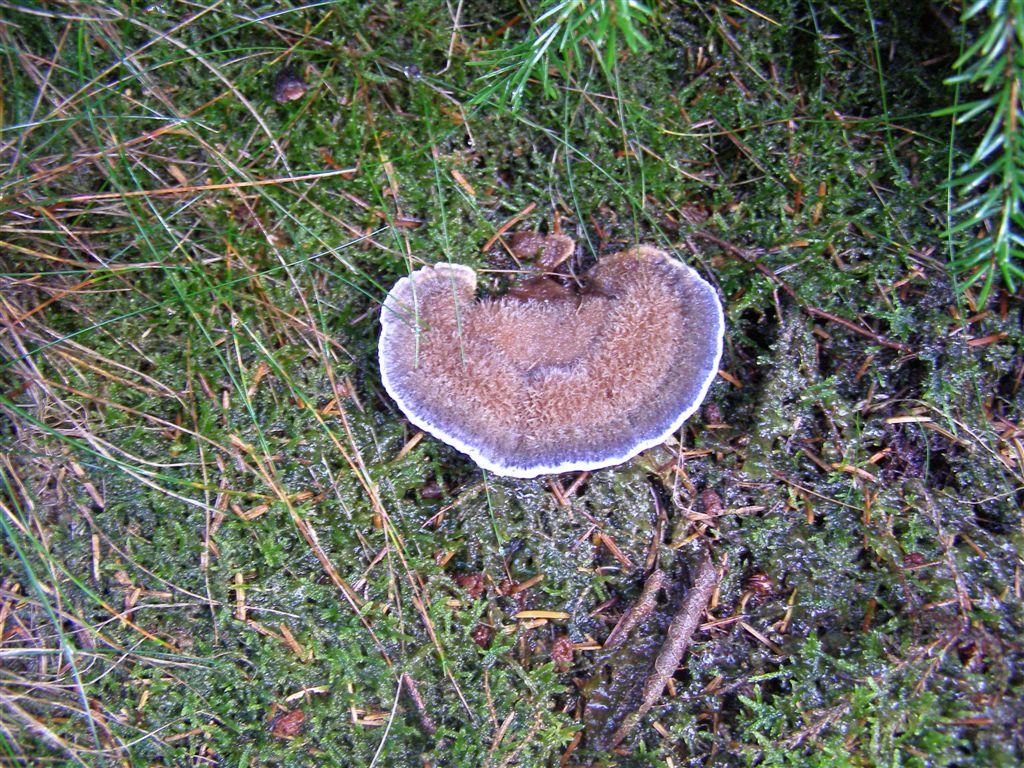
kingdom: Fungi
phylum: Basidiomycota
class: Agaricomycetes
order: Thelephorales
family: Bankeraceae
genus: Hydnellum
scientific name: Hydnellum caeruleum
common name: blålig korkpigsvamp
